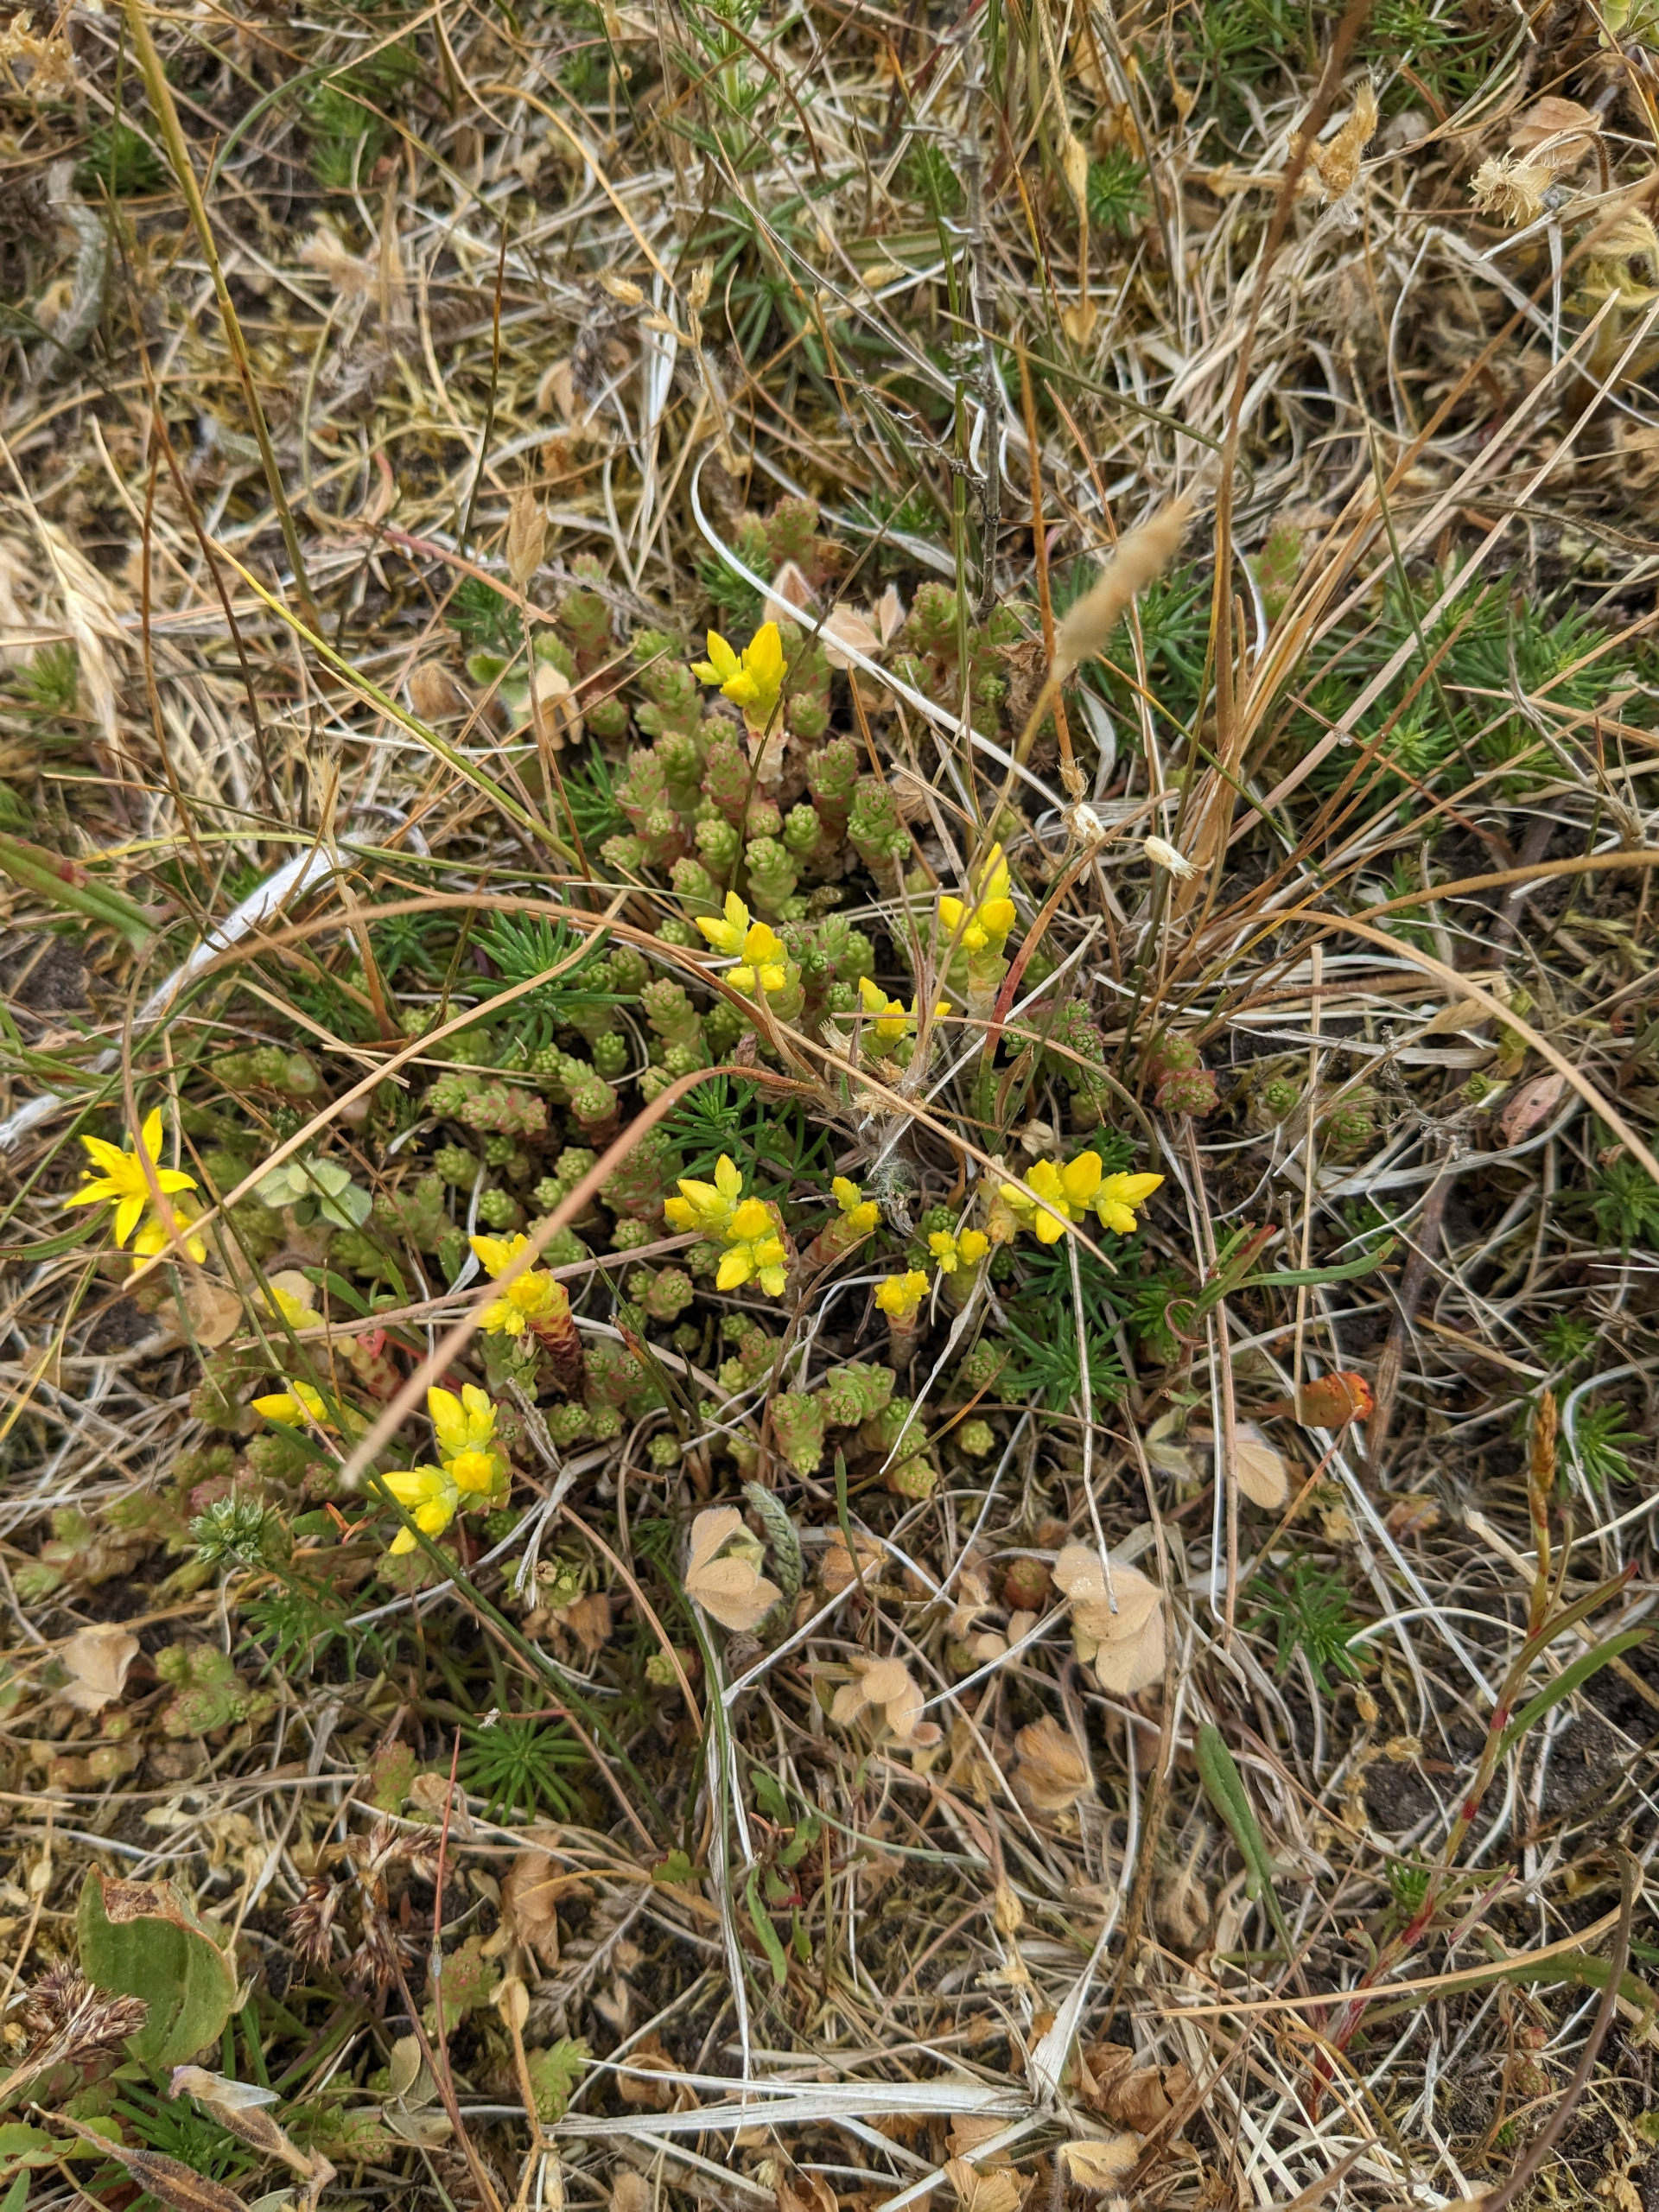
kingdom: Plantae
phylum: Tracheophyta
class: Magnoliopsida
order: Saxifragales
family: Crassulaceae
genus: Sedum
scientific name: Sedum acre
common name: Bidende stenurt
